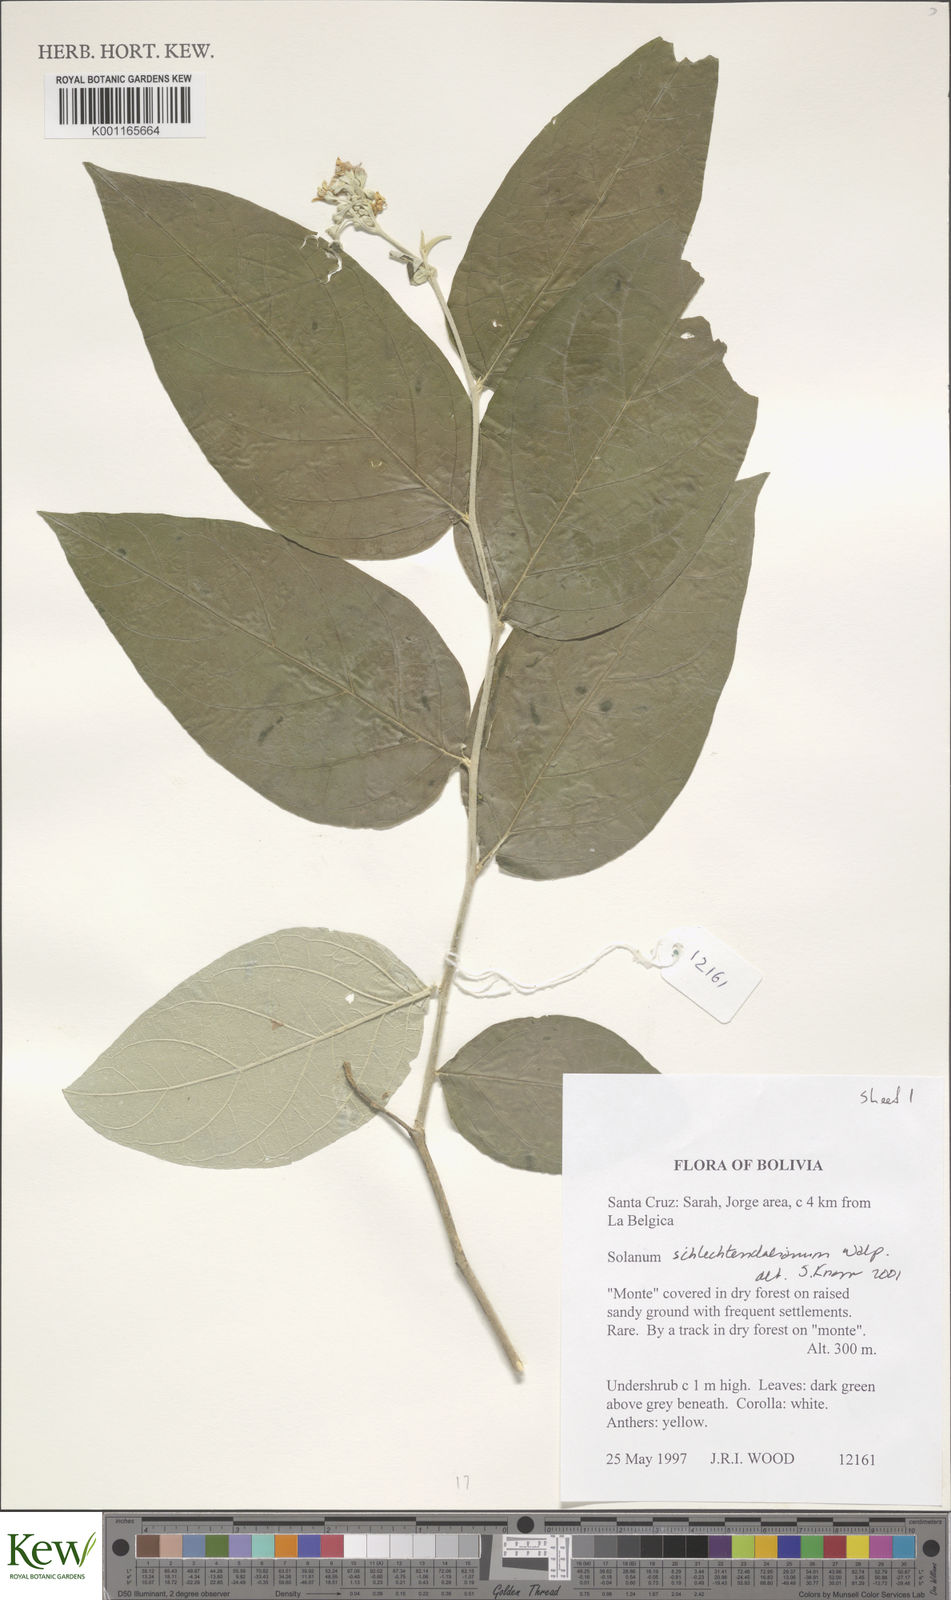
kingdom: Plantae
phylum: Tracheophyta
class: Magnoliopsida
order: Solanales
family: Solanaceae
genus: Solanum
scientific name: Solanum schlechtendalianum
